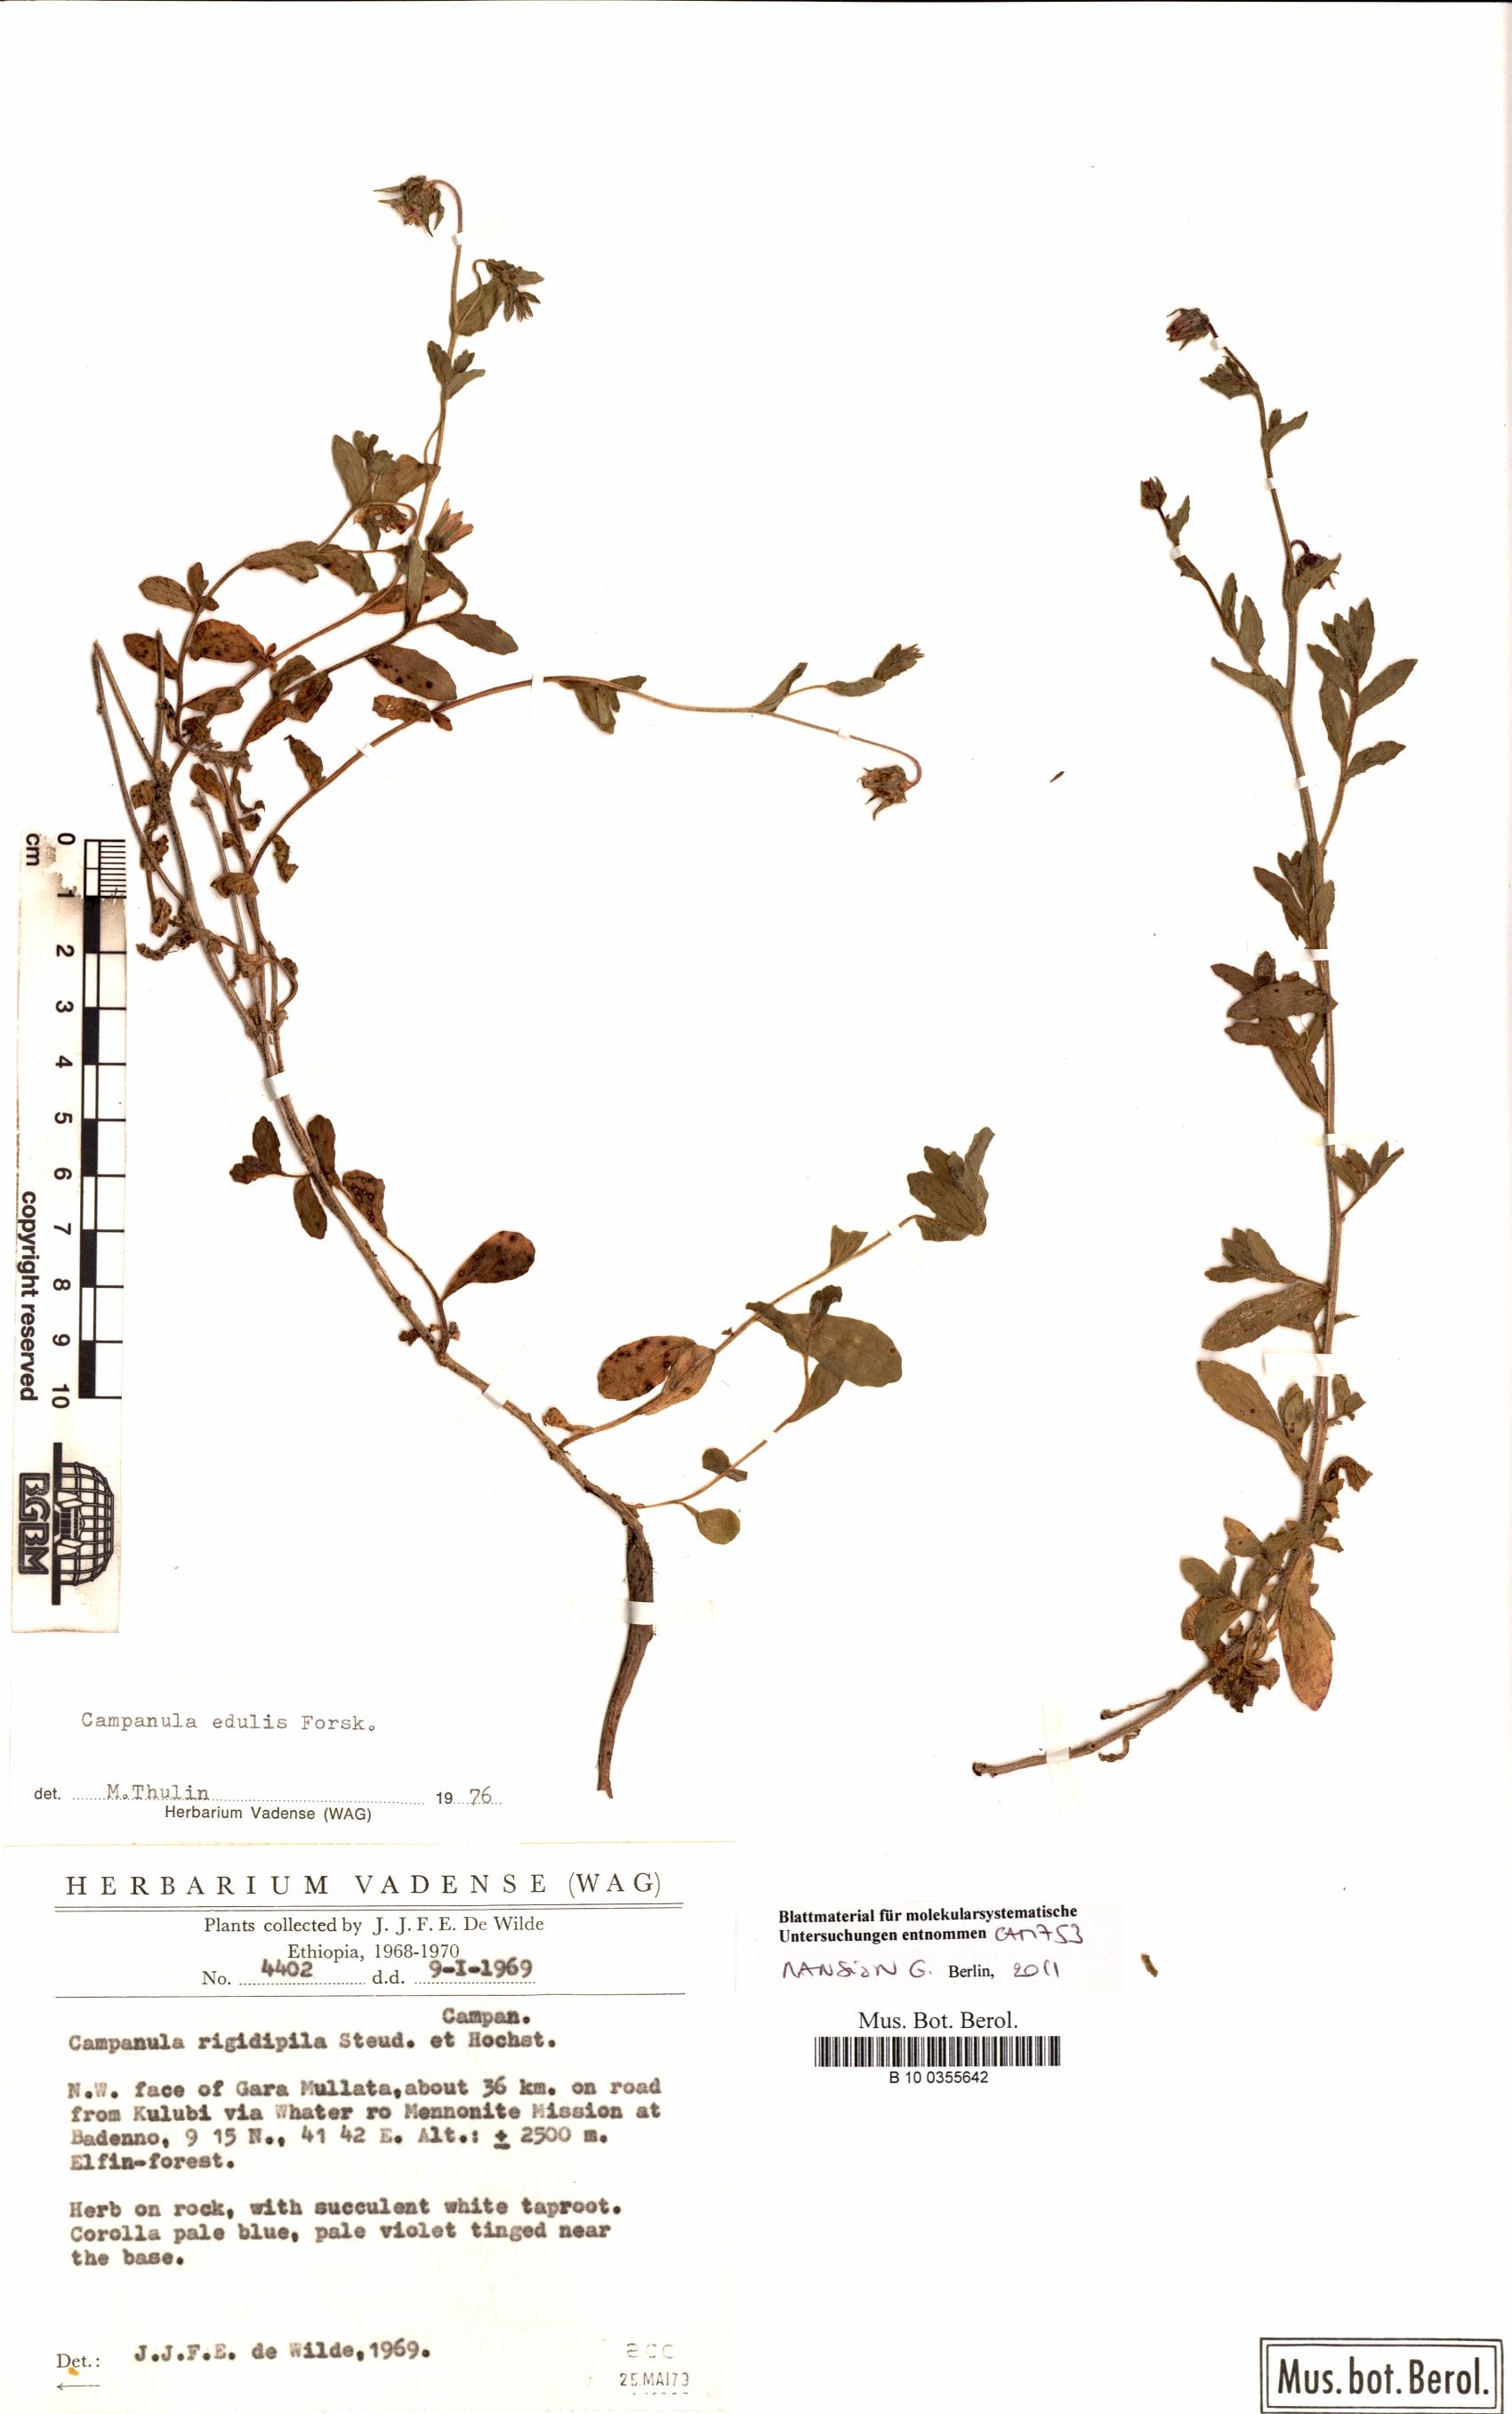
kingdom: Plantae
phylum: Tracheophyta
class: Magnoliopsida
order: Asterales
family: Campanulaceae
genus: Campanula
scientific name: Campanula edulis
